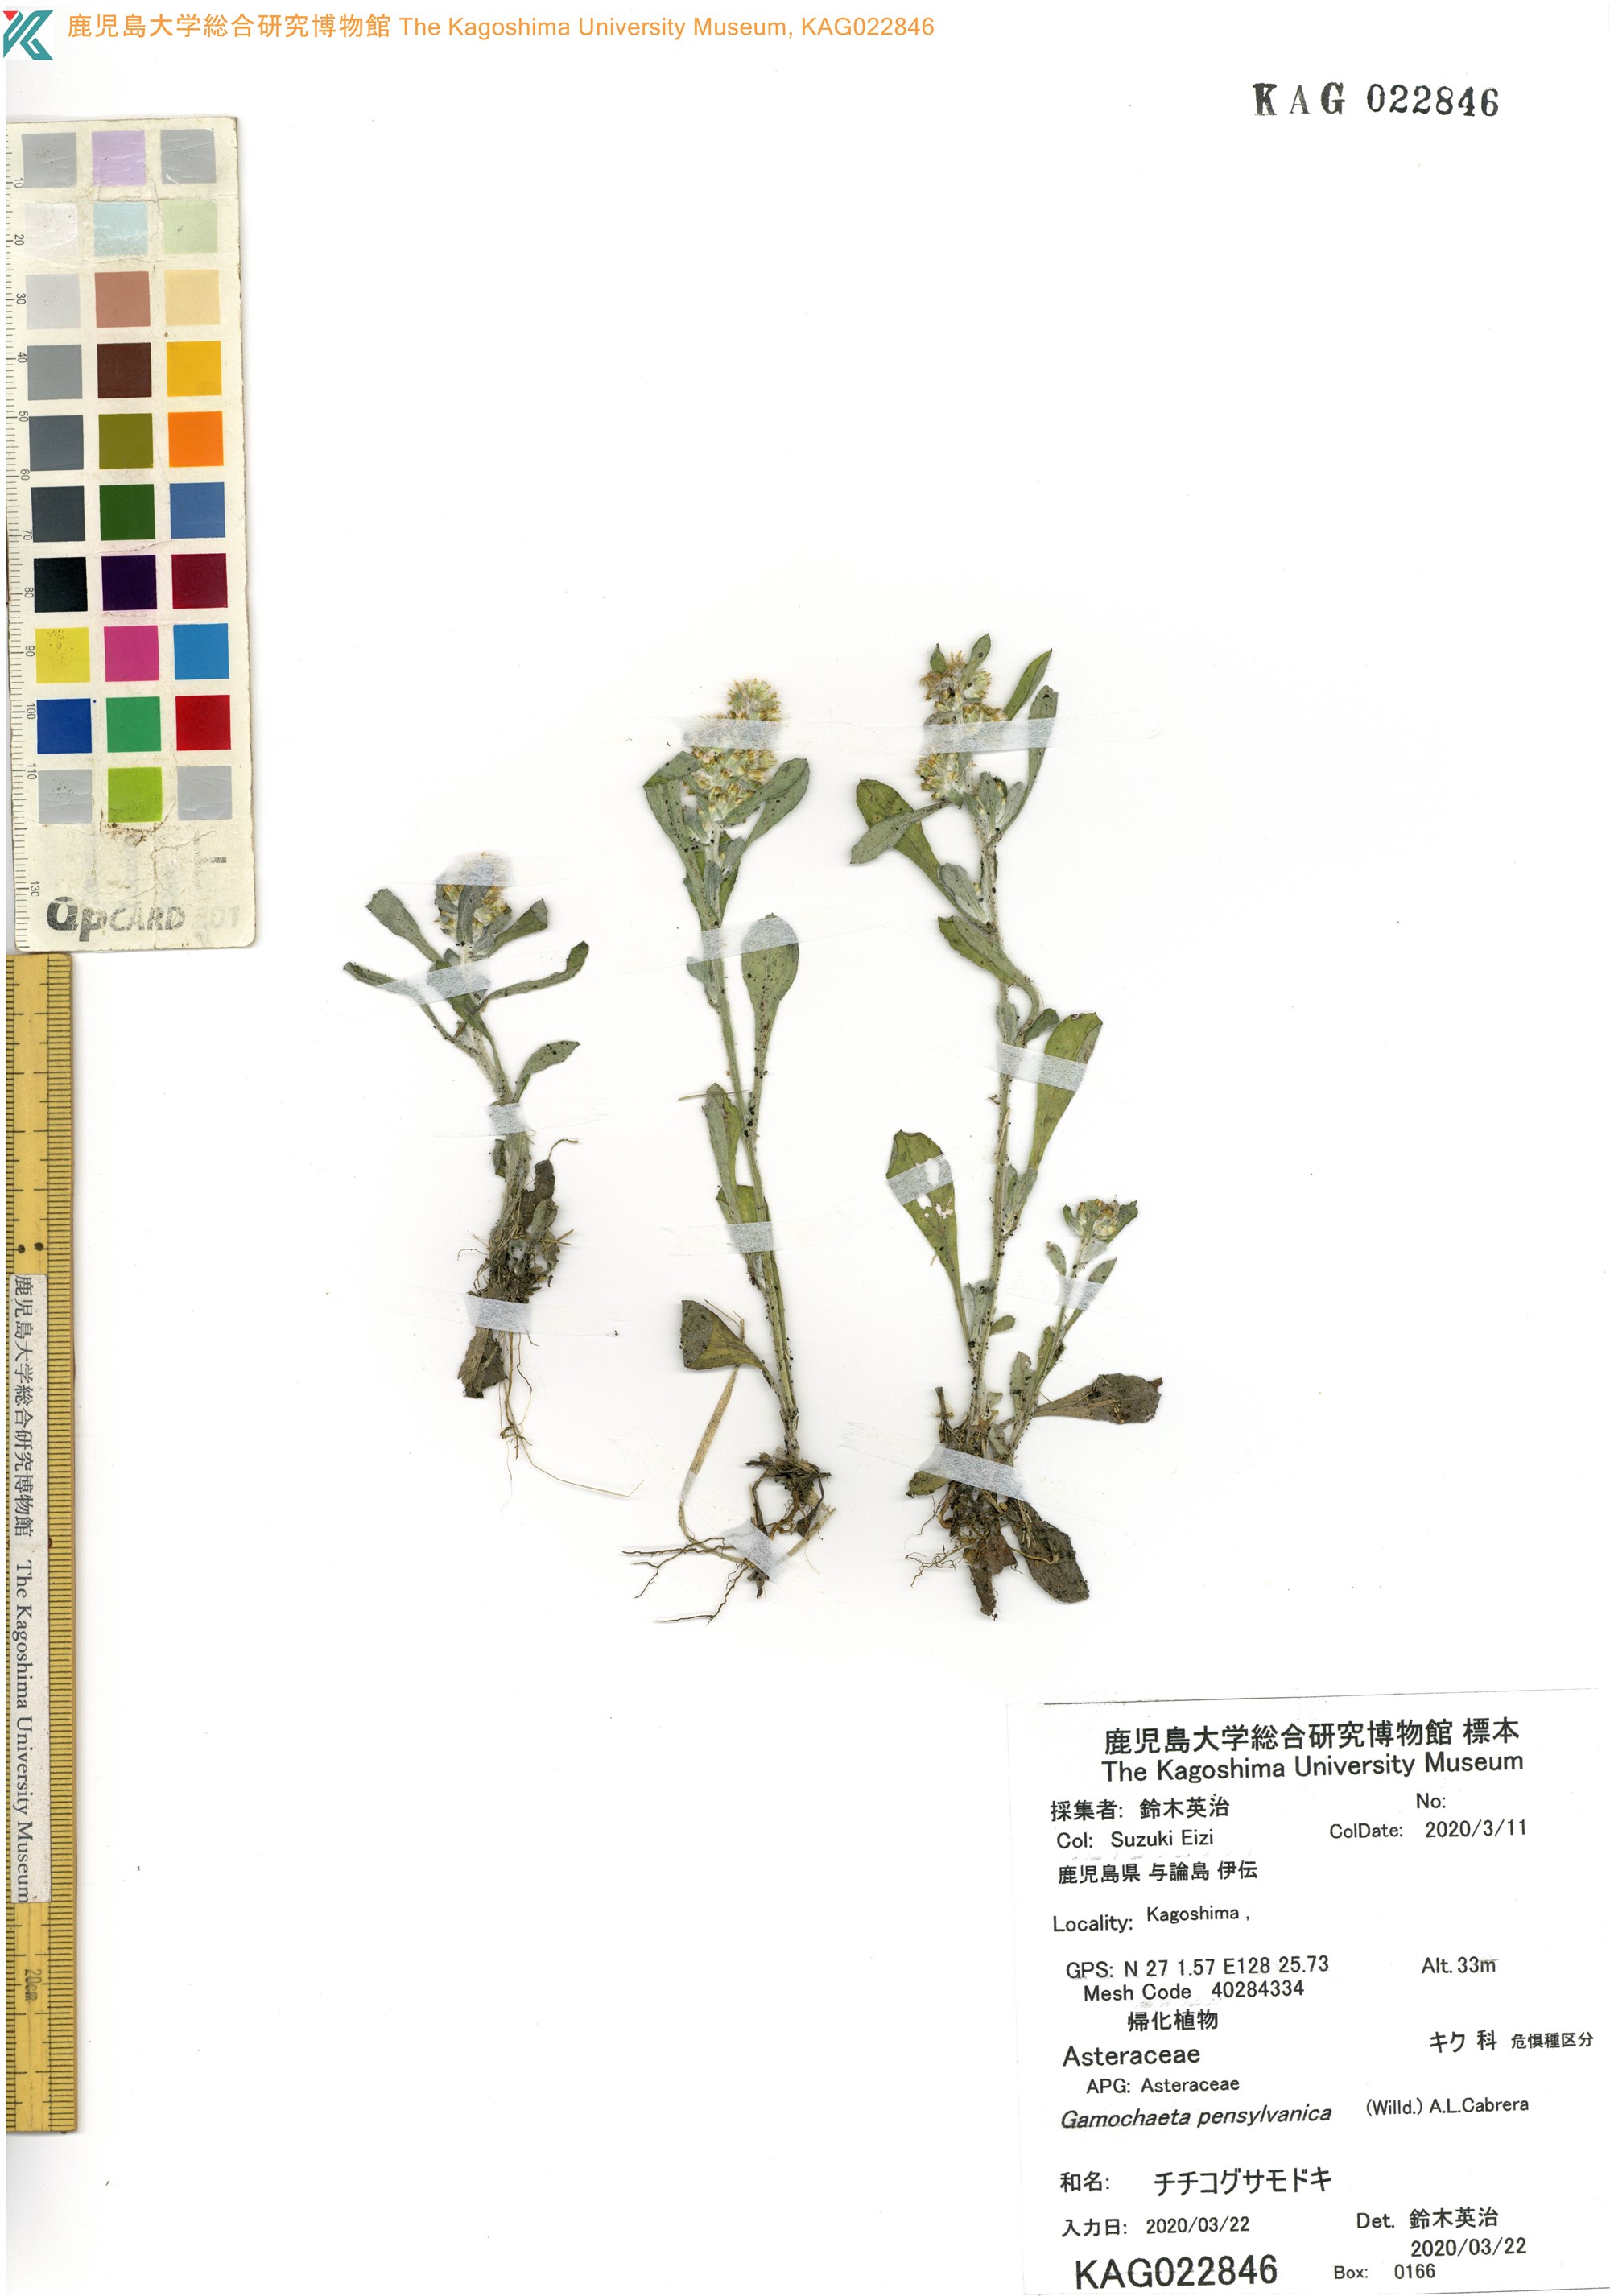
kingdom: Plantae
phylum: Tracheophyta
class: Magnoliopsida
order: Asterales
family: Asteraceae
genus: Gamochaeta
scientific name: Gamochaeta pensylvanica
